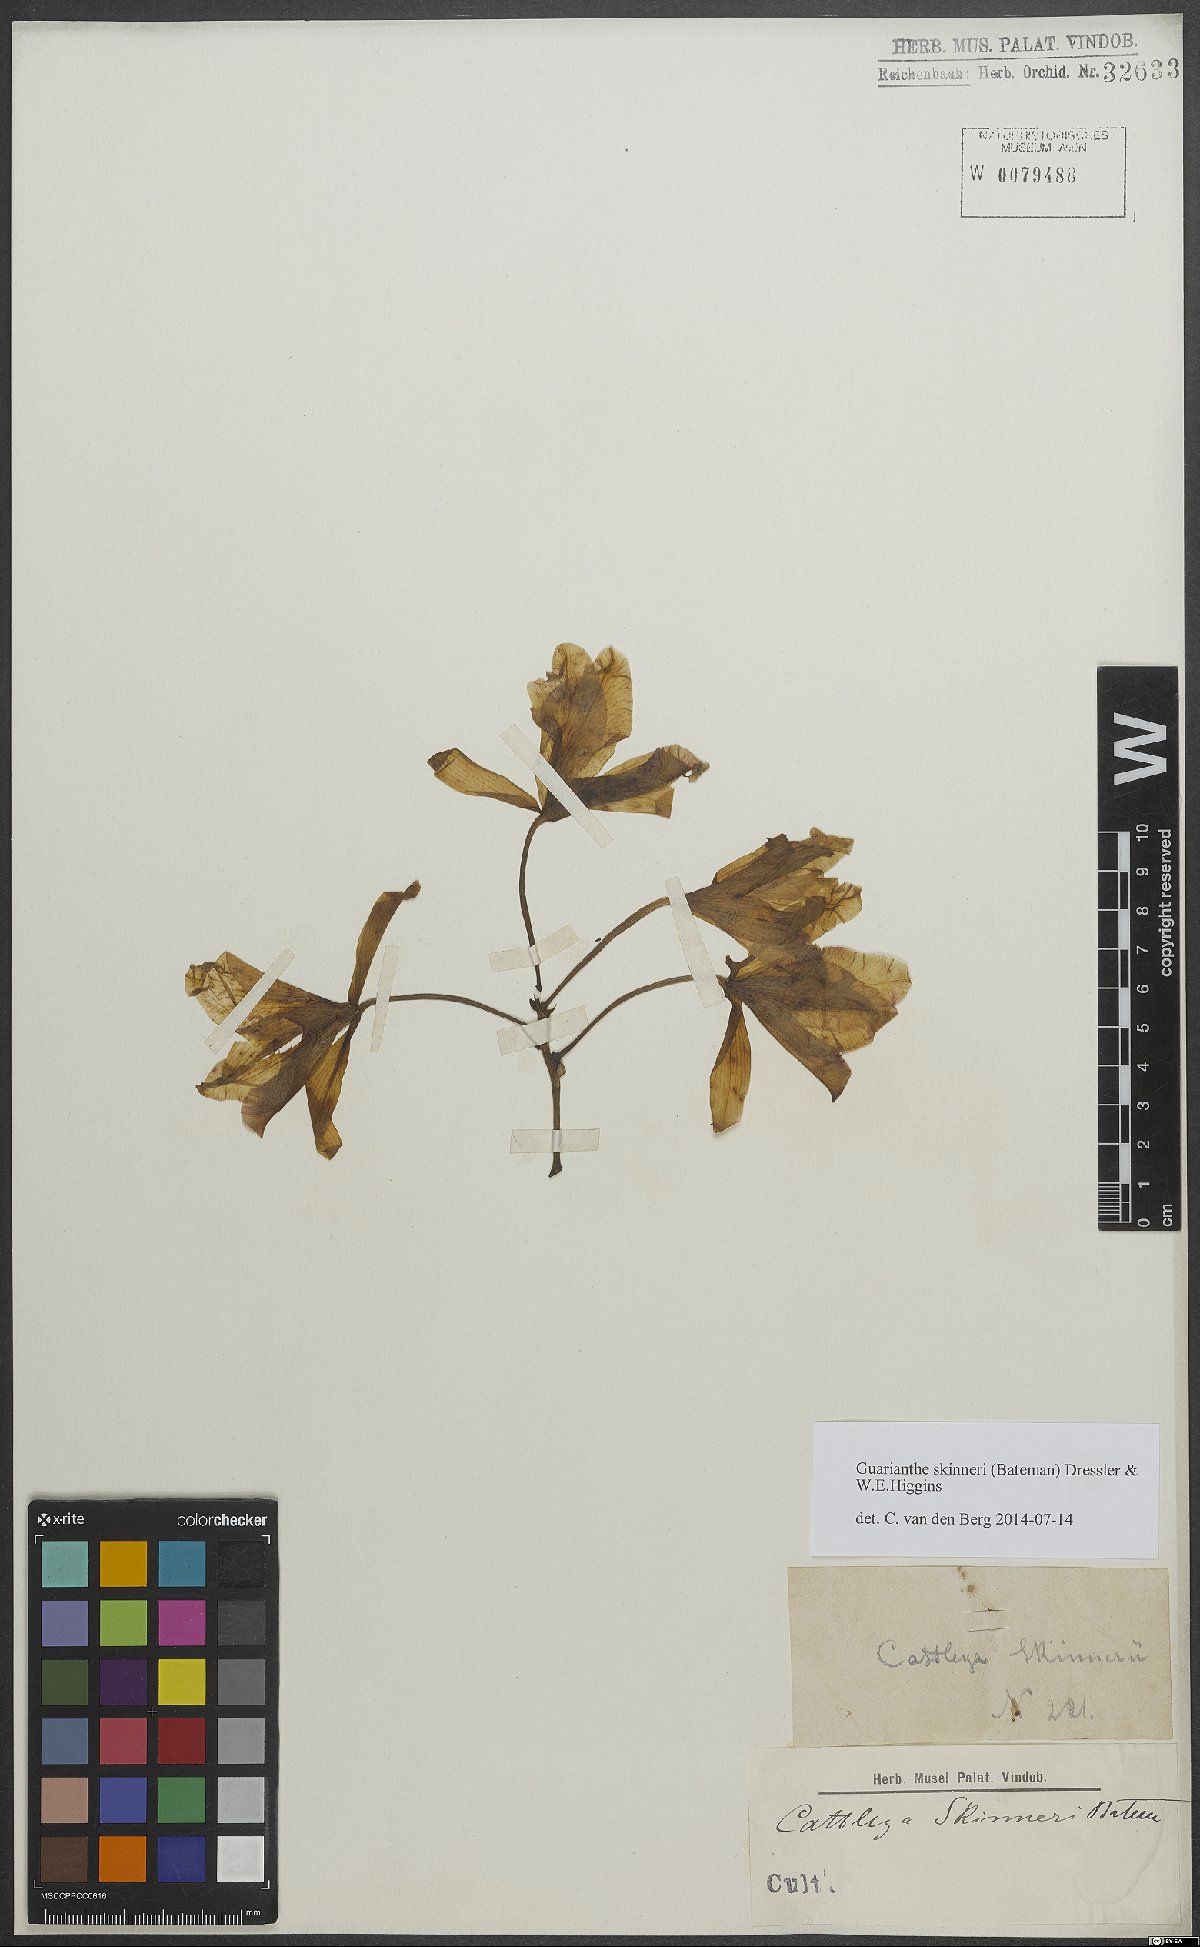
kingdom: Plantae
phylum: Tracheophyta
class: Liliopsida
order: Asparagales
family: Orchidaceae
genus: Guarianthe
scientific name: Guarianthe skinneri
